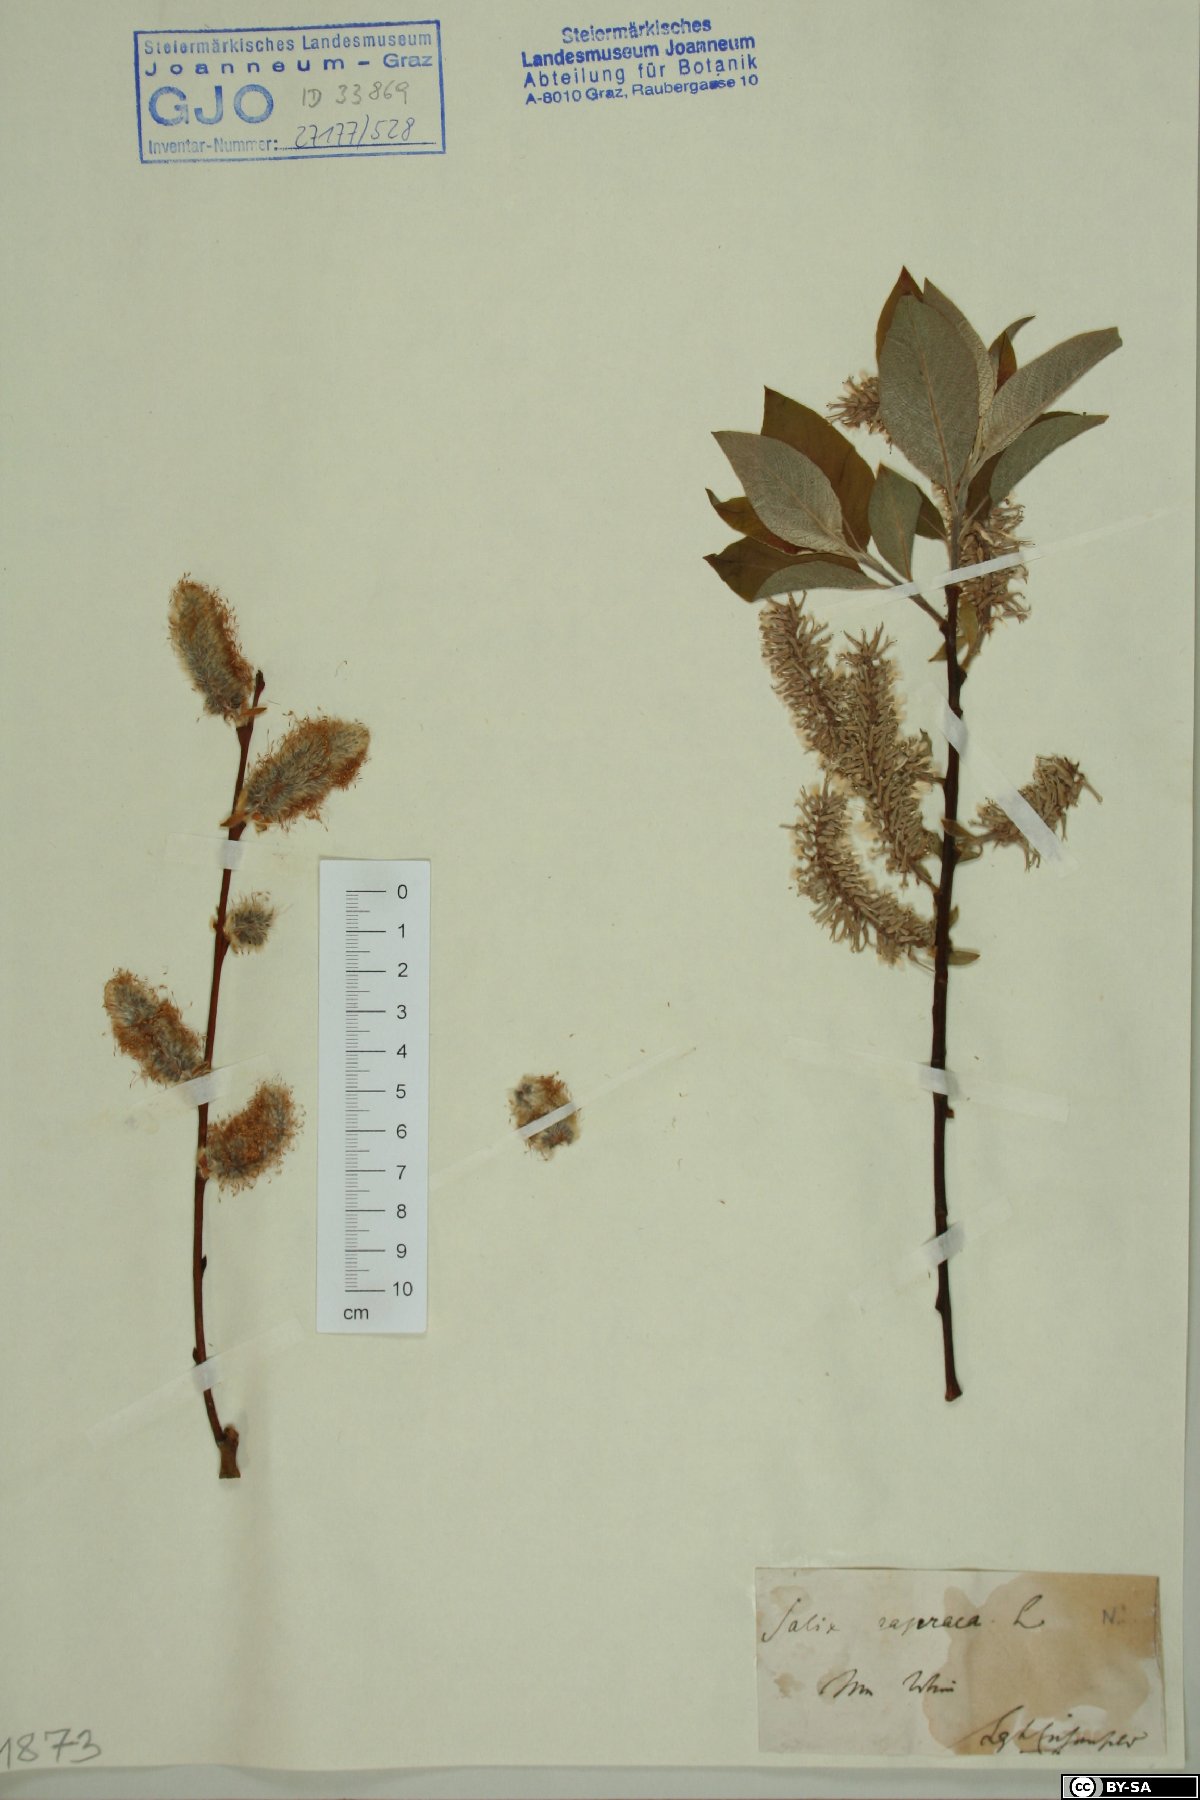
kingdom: Plantae
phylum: Tracheophyta
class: Magnoliopsida
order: Malpighiales
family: Salicaceae
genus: Salix
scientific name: Salix caprea
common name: Goat willow
